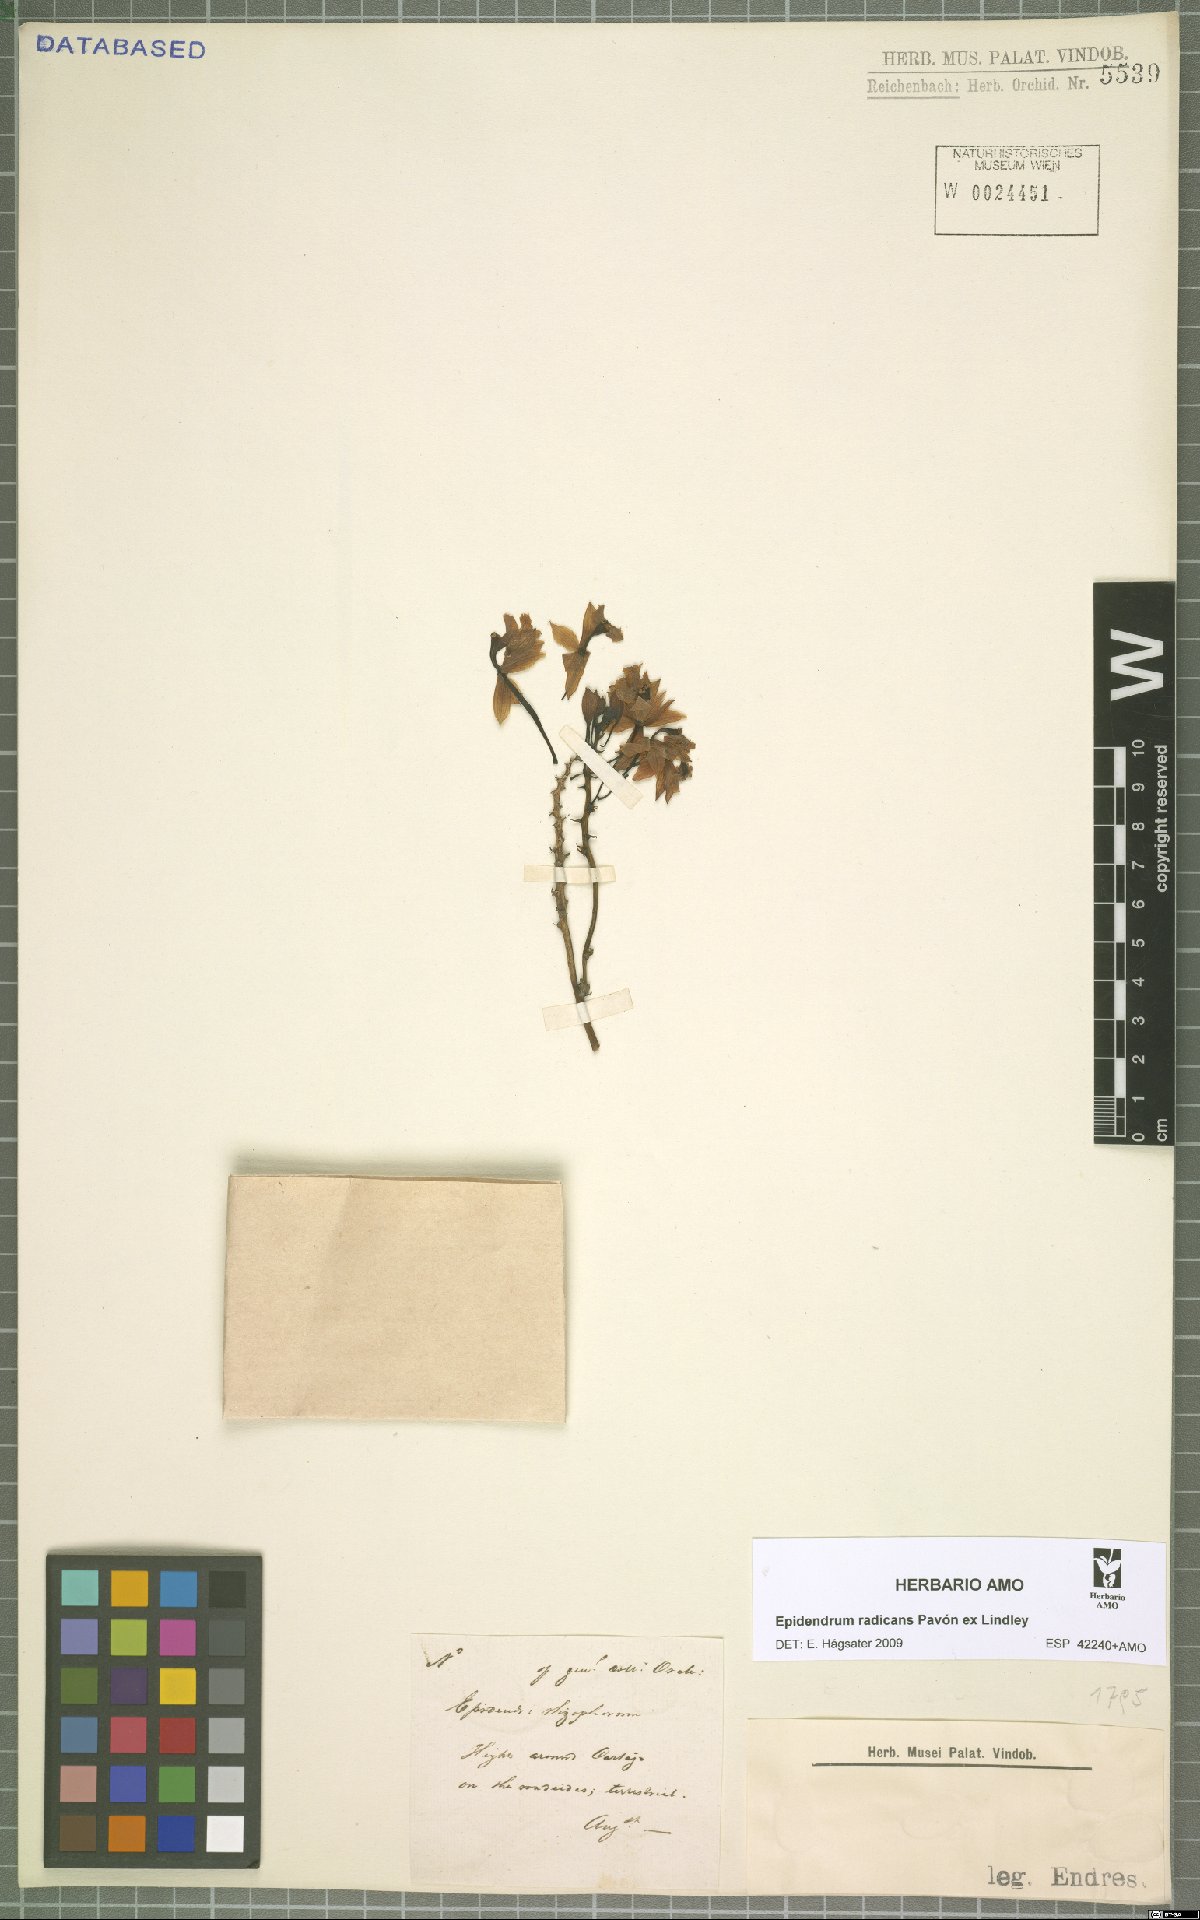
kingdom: Plantae
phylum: Tracheophyta
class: Liliopsida
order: Asparagales
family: Orchidaceae
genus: Epidendrum
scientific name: Epidendrum radicans
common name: Fire star orchid
